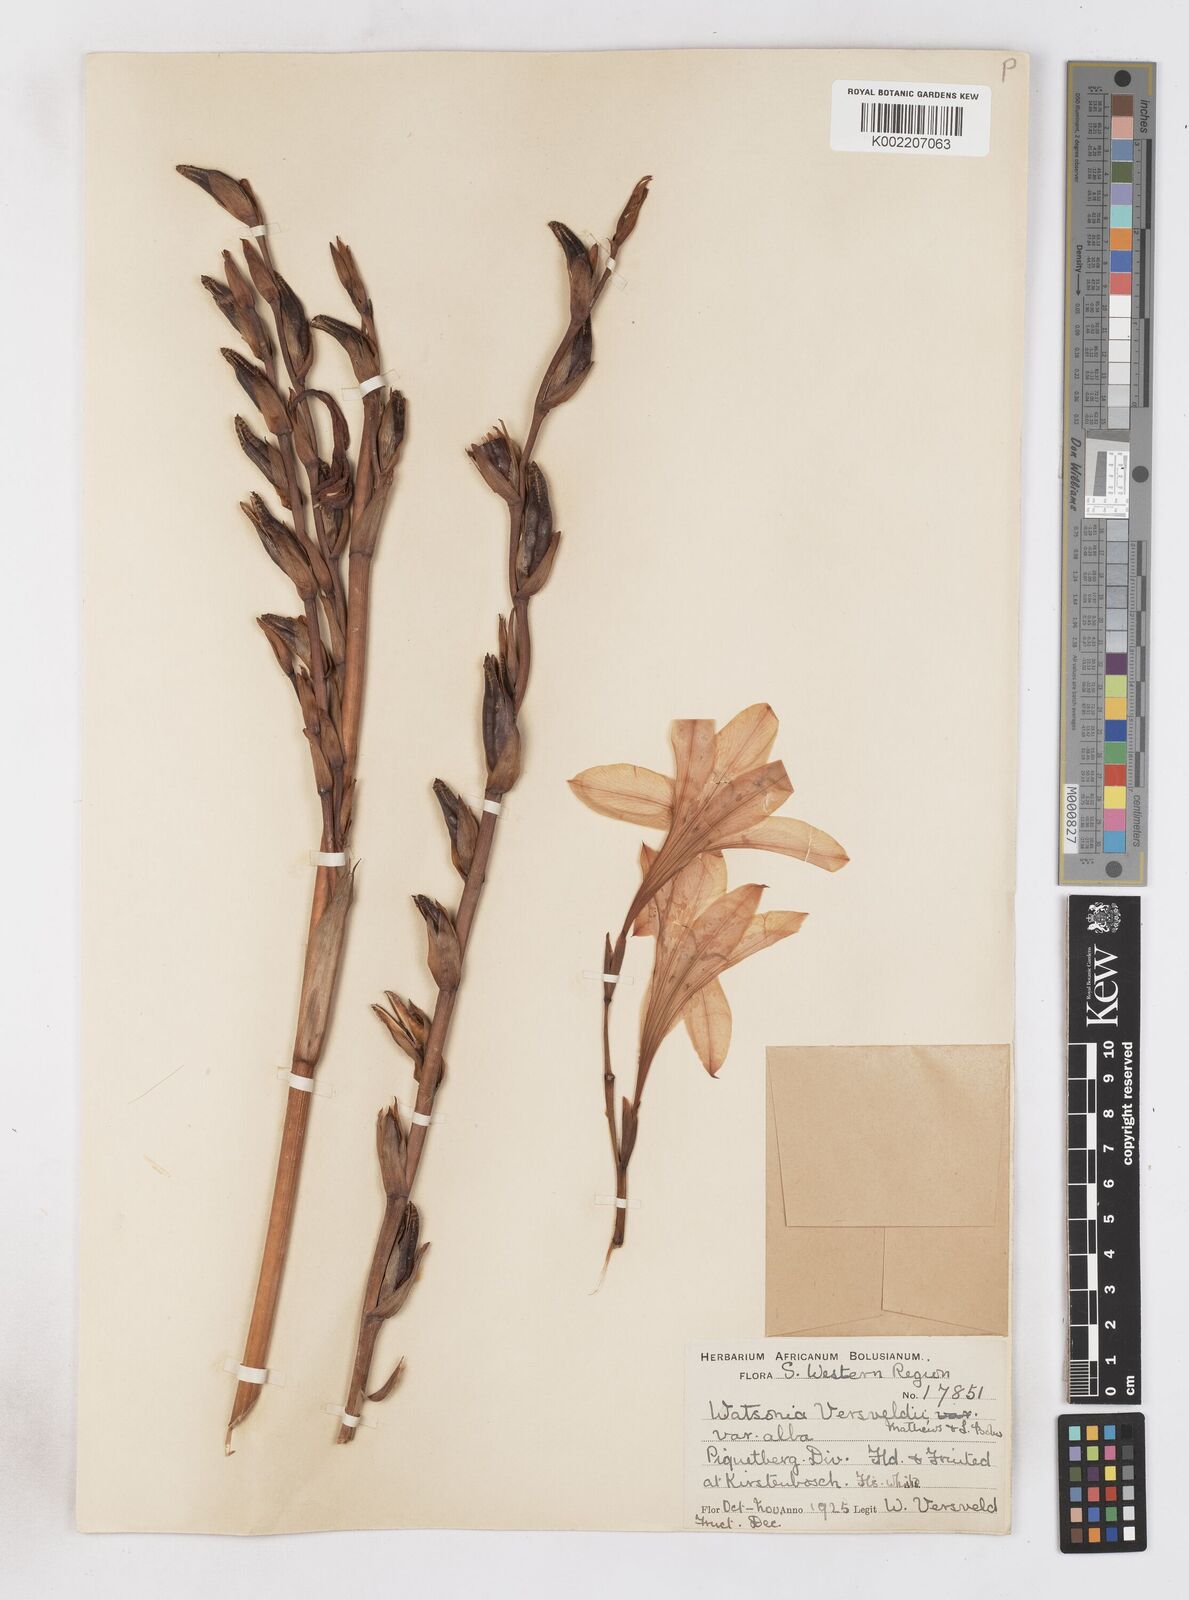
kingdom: Plantae
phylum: Tracheophyta
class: Liliopsida
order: Asparagales
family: Iridaceae
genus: Watsonia
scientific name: Watsonia versfeldii
